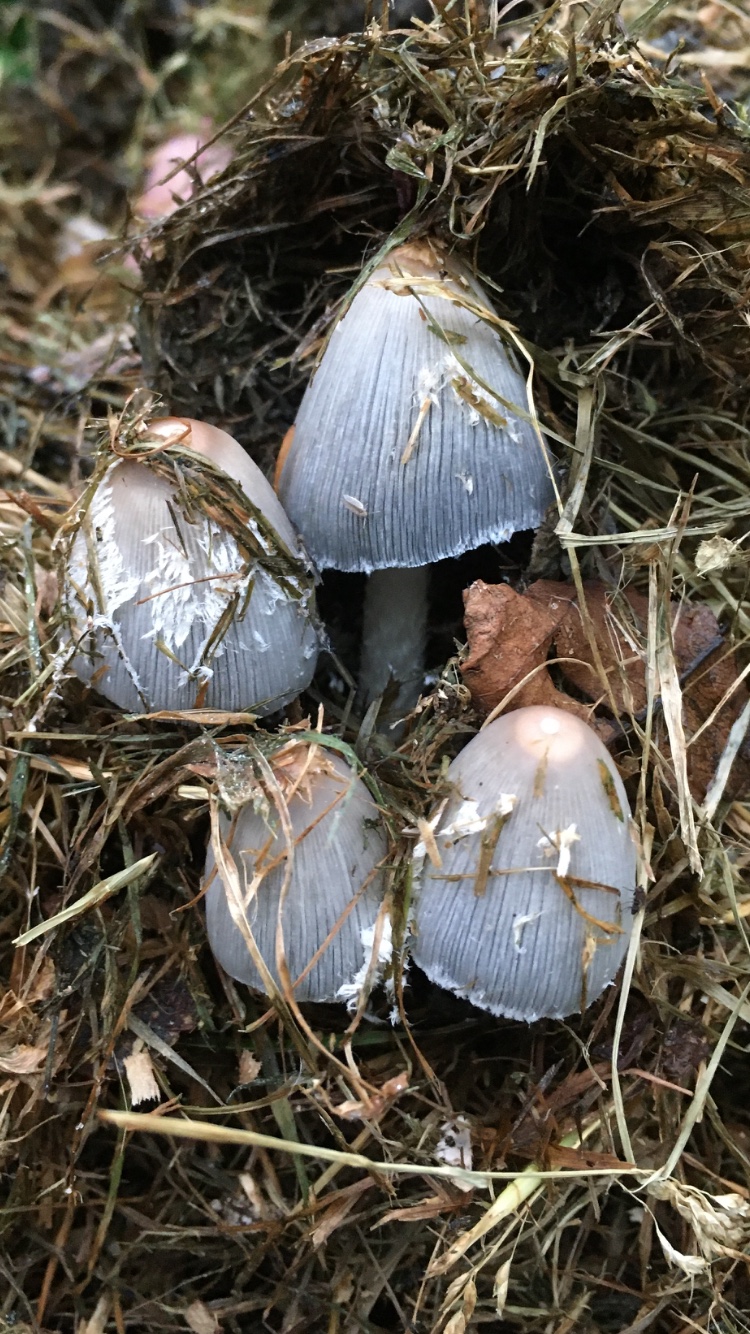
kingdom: Fungi
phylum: Basidiomycota
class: Agaricomycetes
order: Agaricales
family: Psathyrellaceae
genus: Coprinopsis
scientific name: Coprinopsis
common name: blækhat
